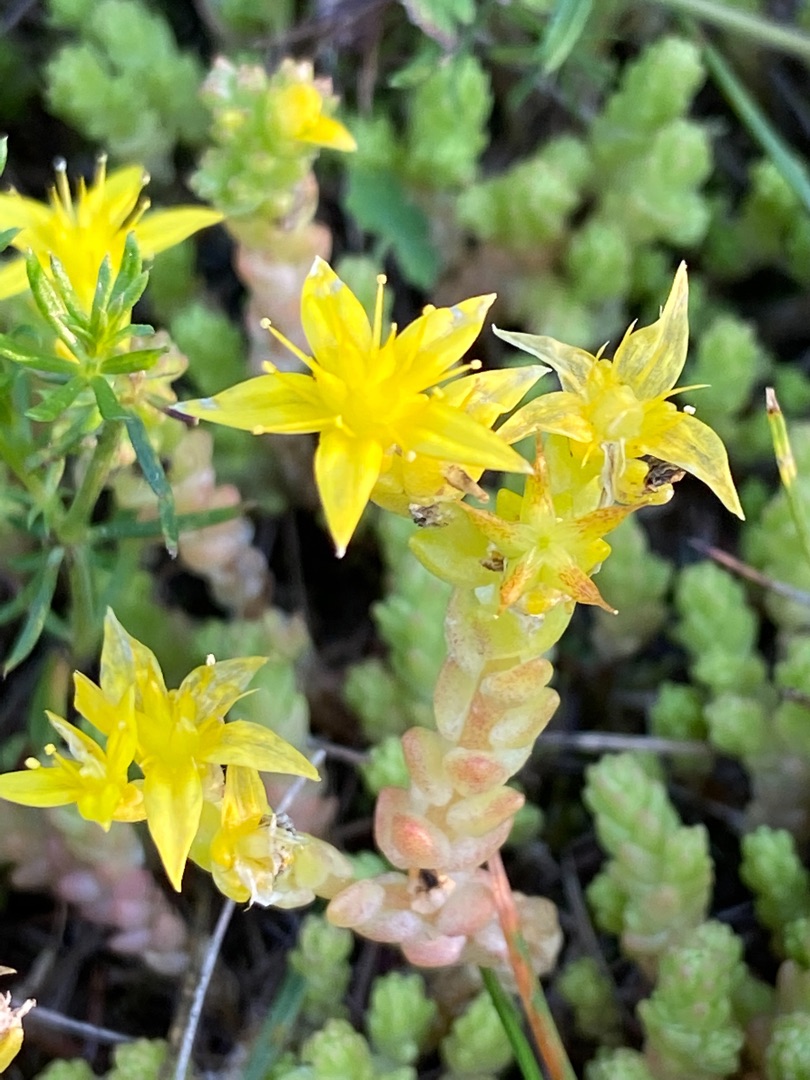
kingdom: Plantae
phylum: Tracheophyta
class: Magnoliopsida
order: Saxifragales
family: Crassulaceae
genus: Sedum
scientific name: Sedum acre
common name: Bidende stenurt
